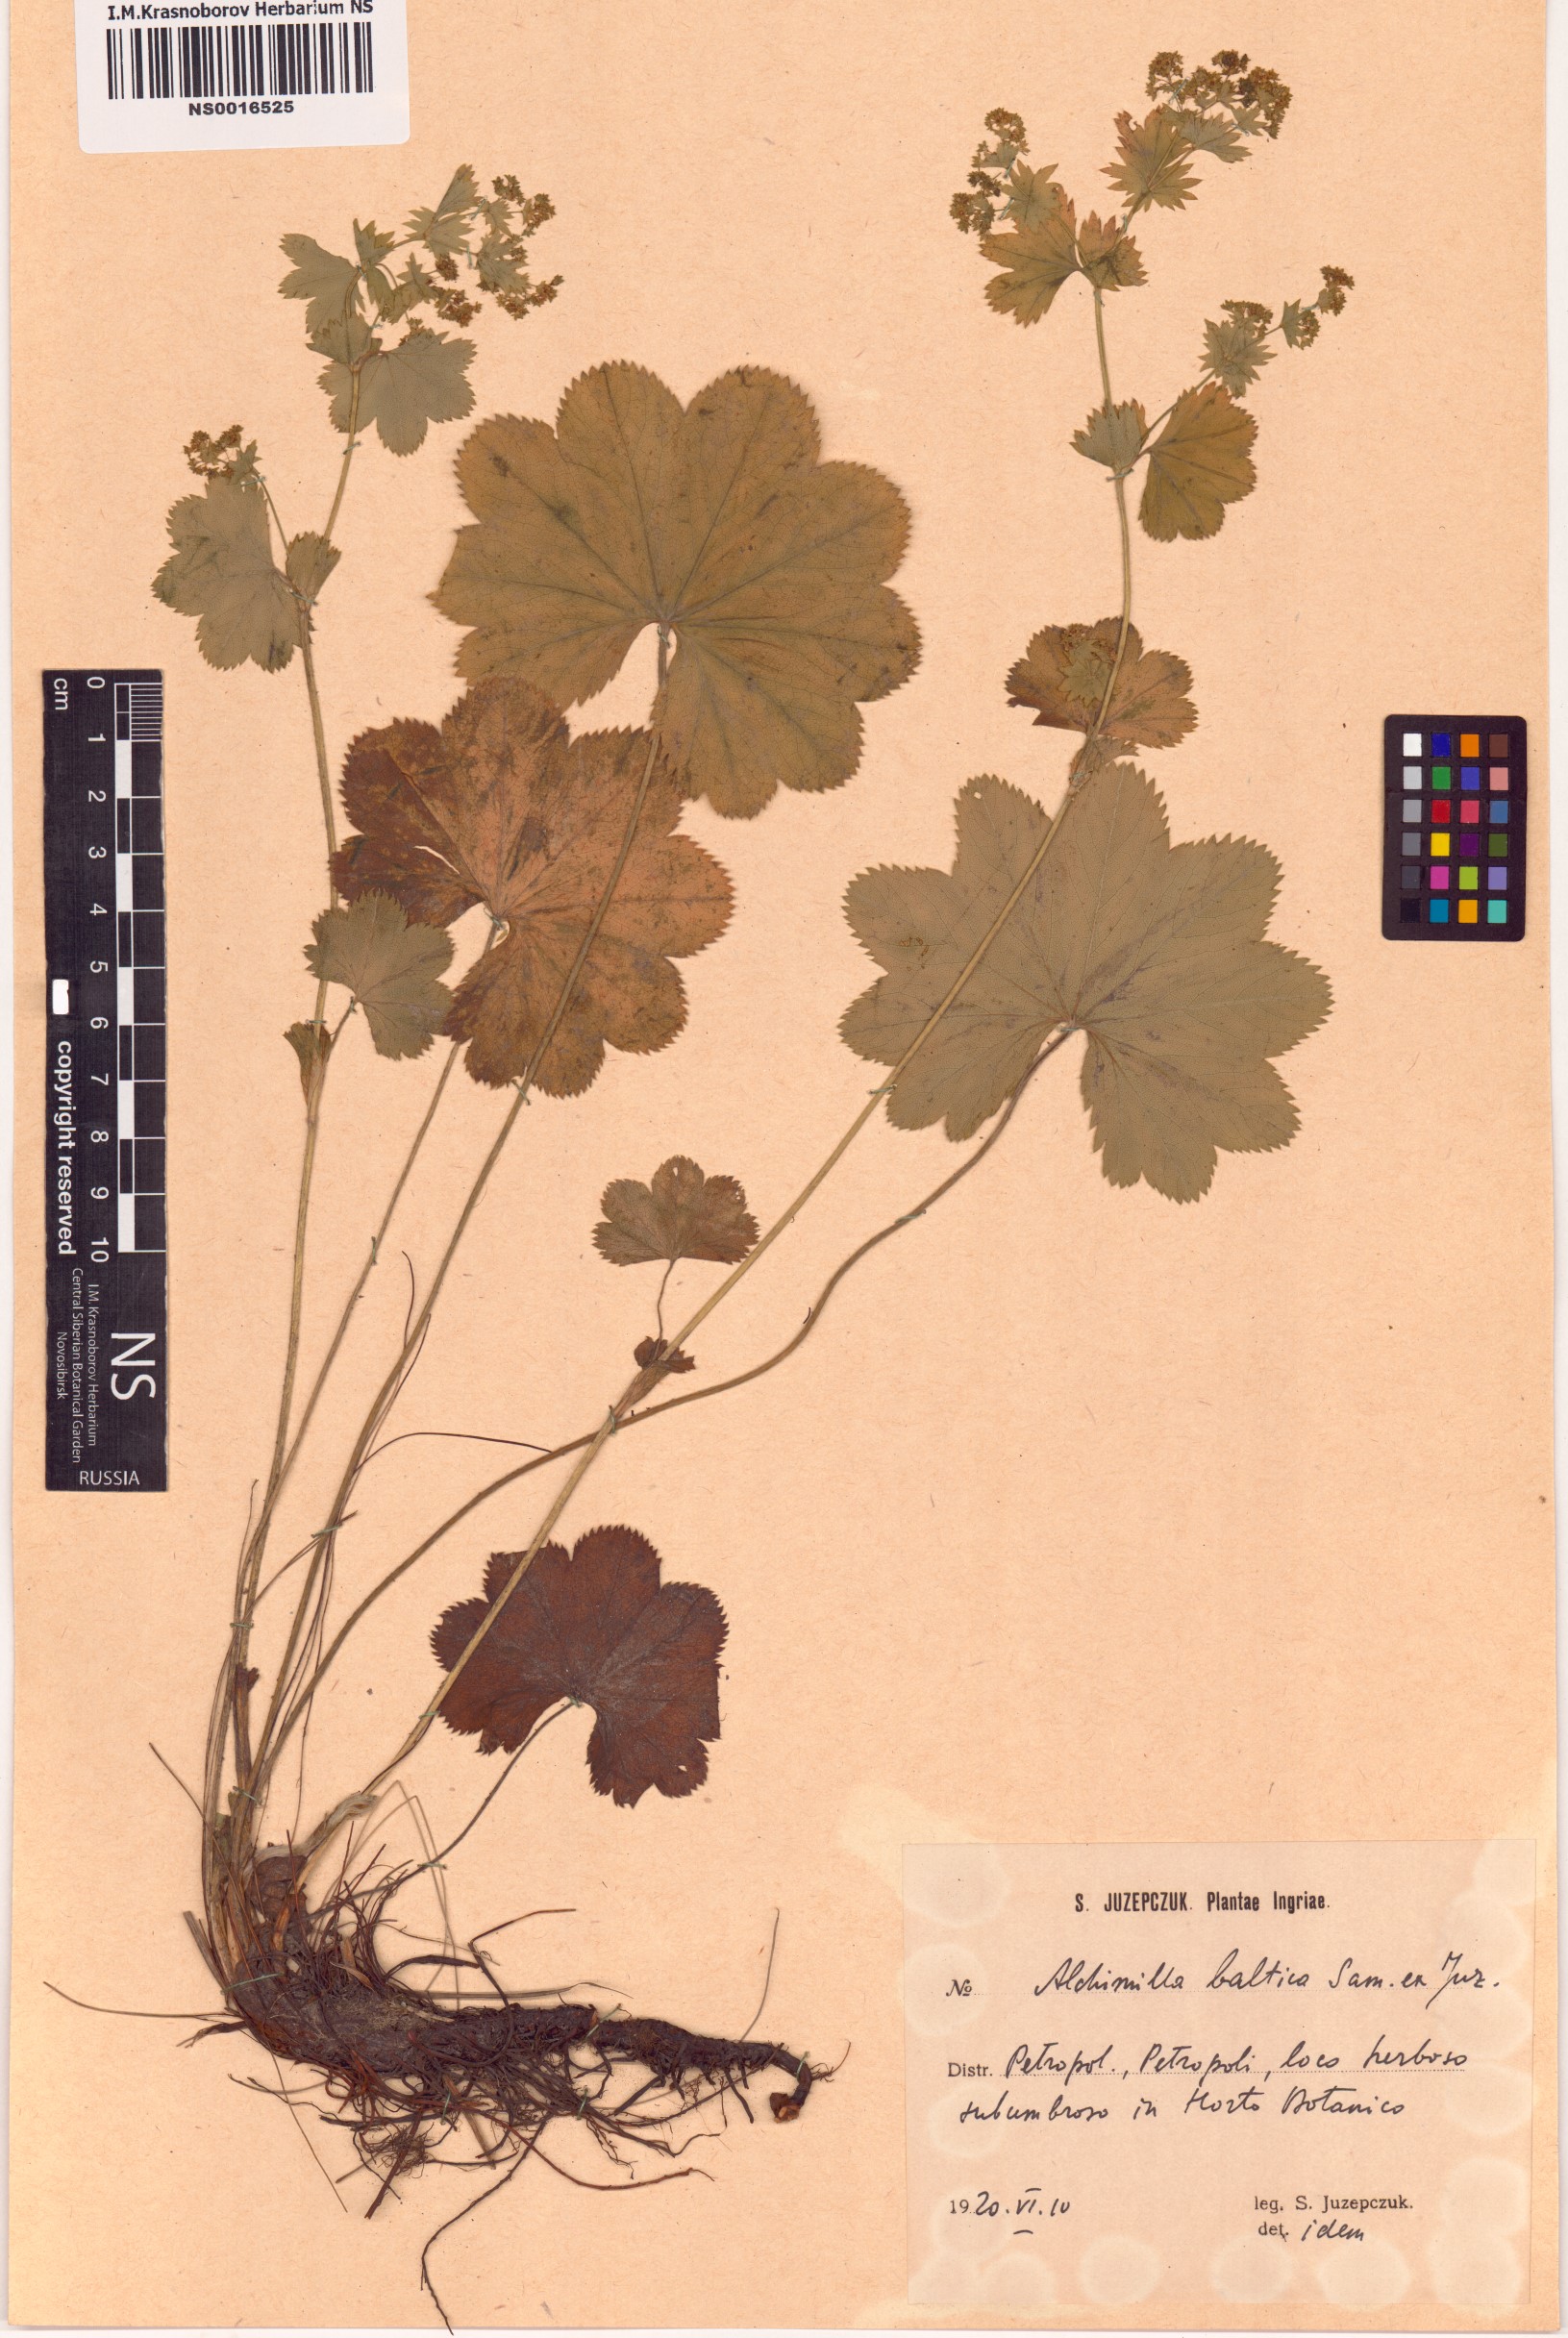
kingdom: Plantae
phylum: Tracheophyta
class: Magnoliopsida
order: Rosales
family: Rosaceae
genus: Alchemilla
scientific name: Alchemilla baltica
